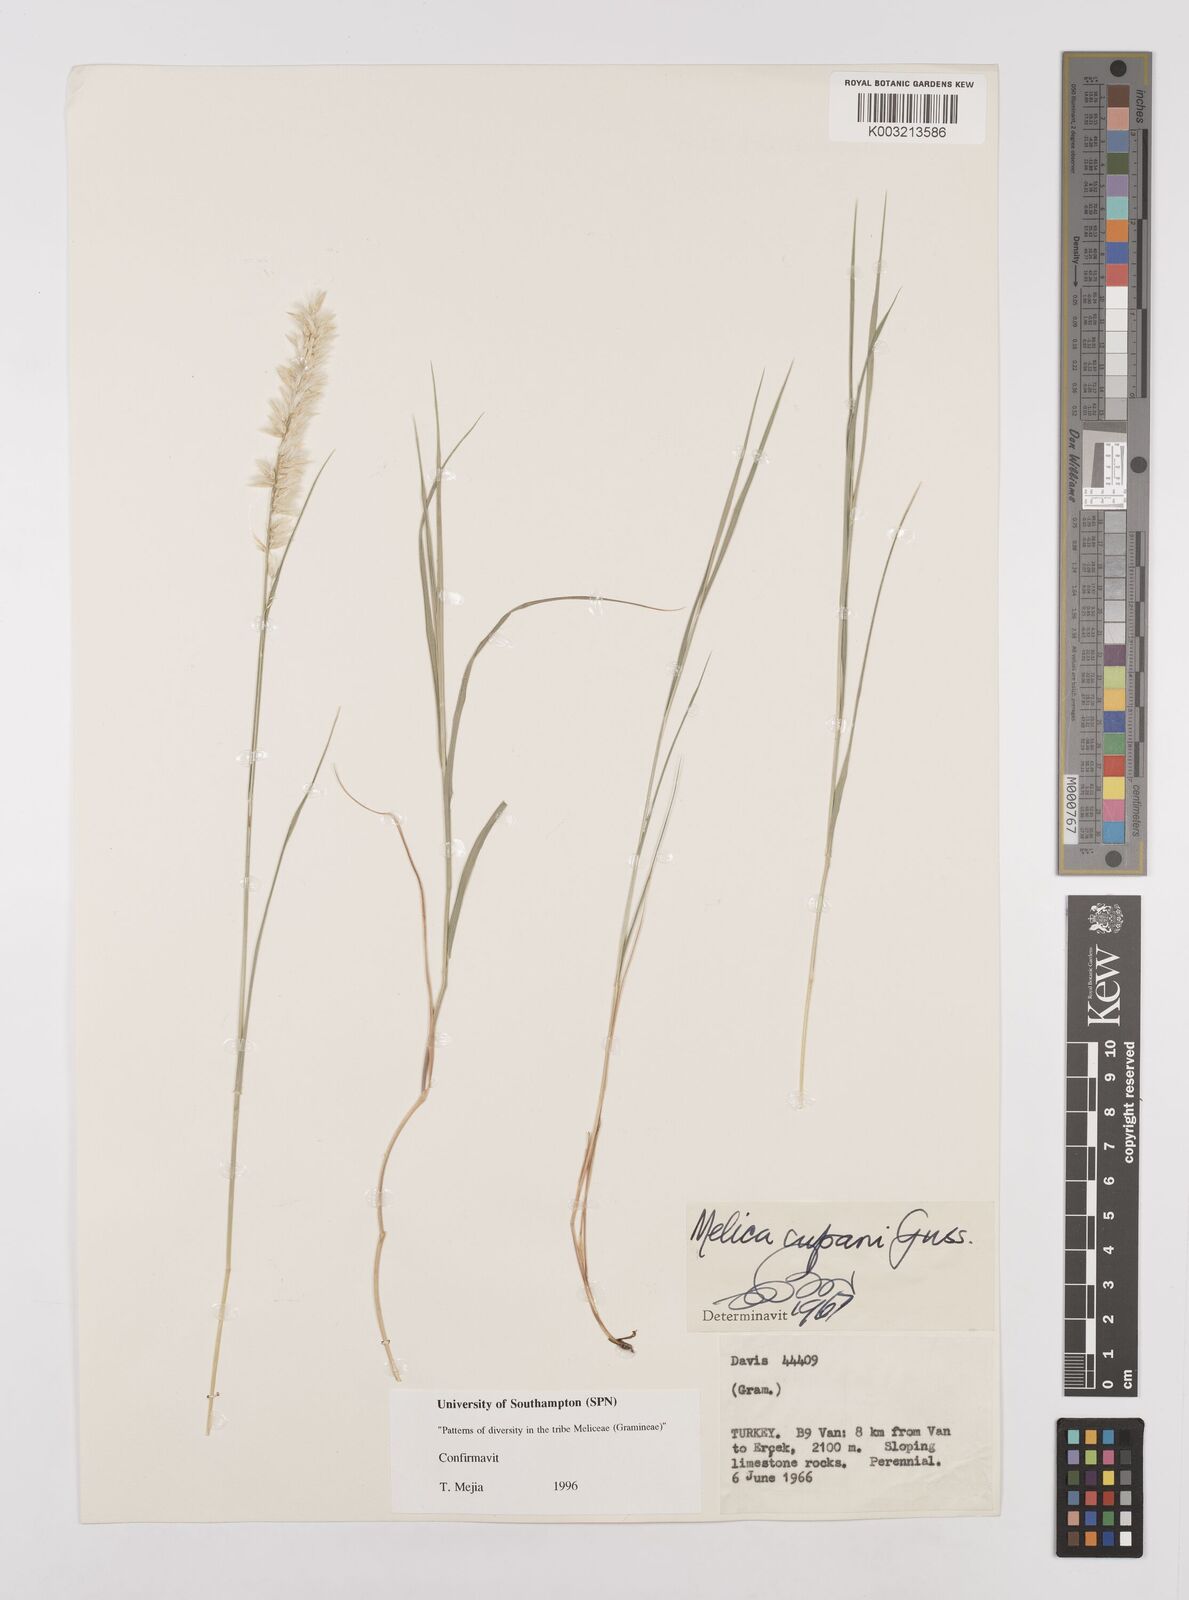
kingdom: Plantae
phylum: Tracheophyta
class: Liliopsida
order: Poales
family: Poaceae
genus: Melica
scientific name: Melica cupani
